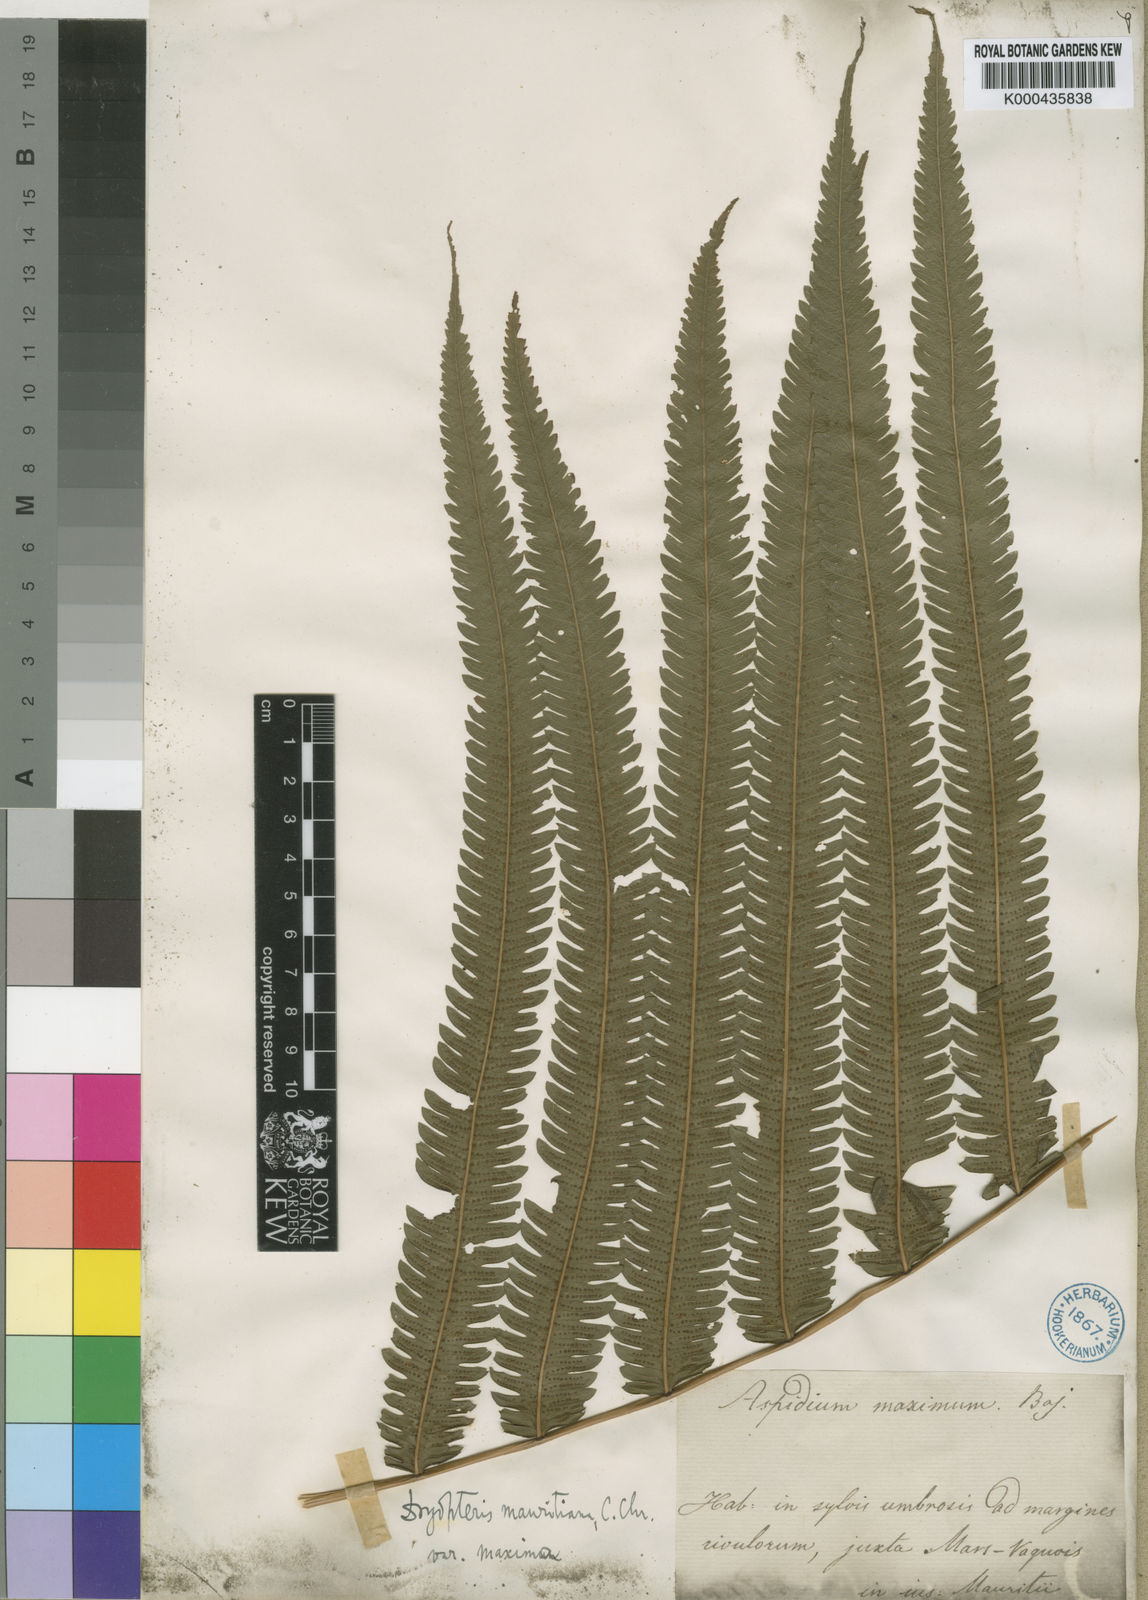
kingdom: Plantae
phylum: Tracheophyta
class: Polypodiopsida
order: Polypodiales
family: Thelypteridaceae
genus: Sphaerostephanos
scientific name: Sphaerostephanos elatus
